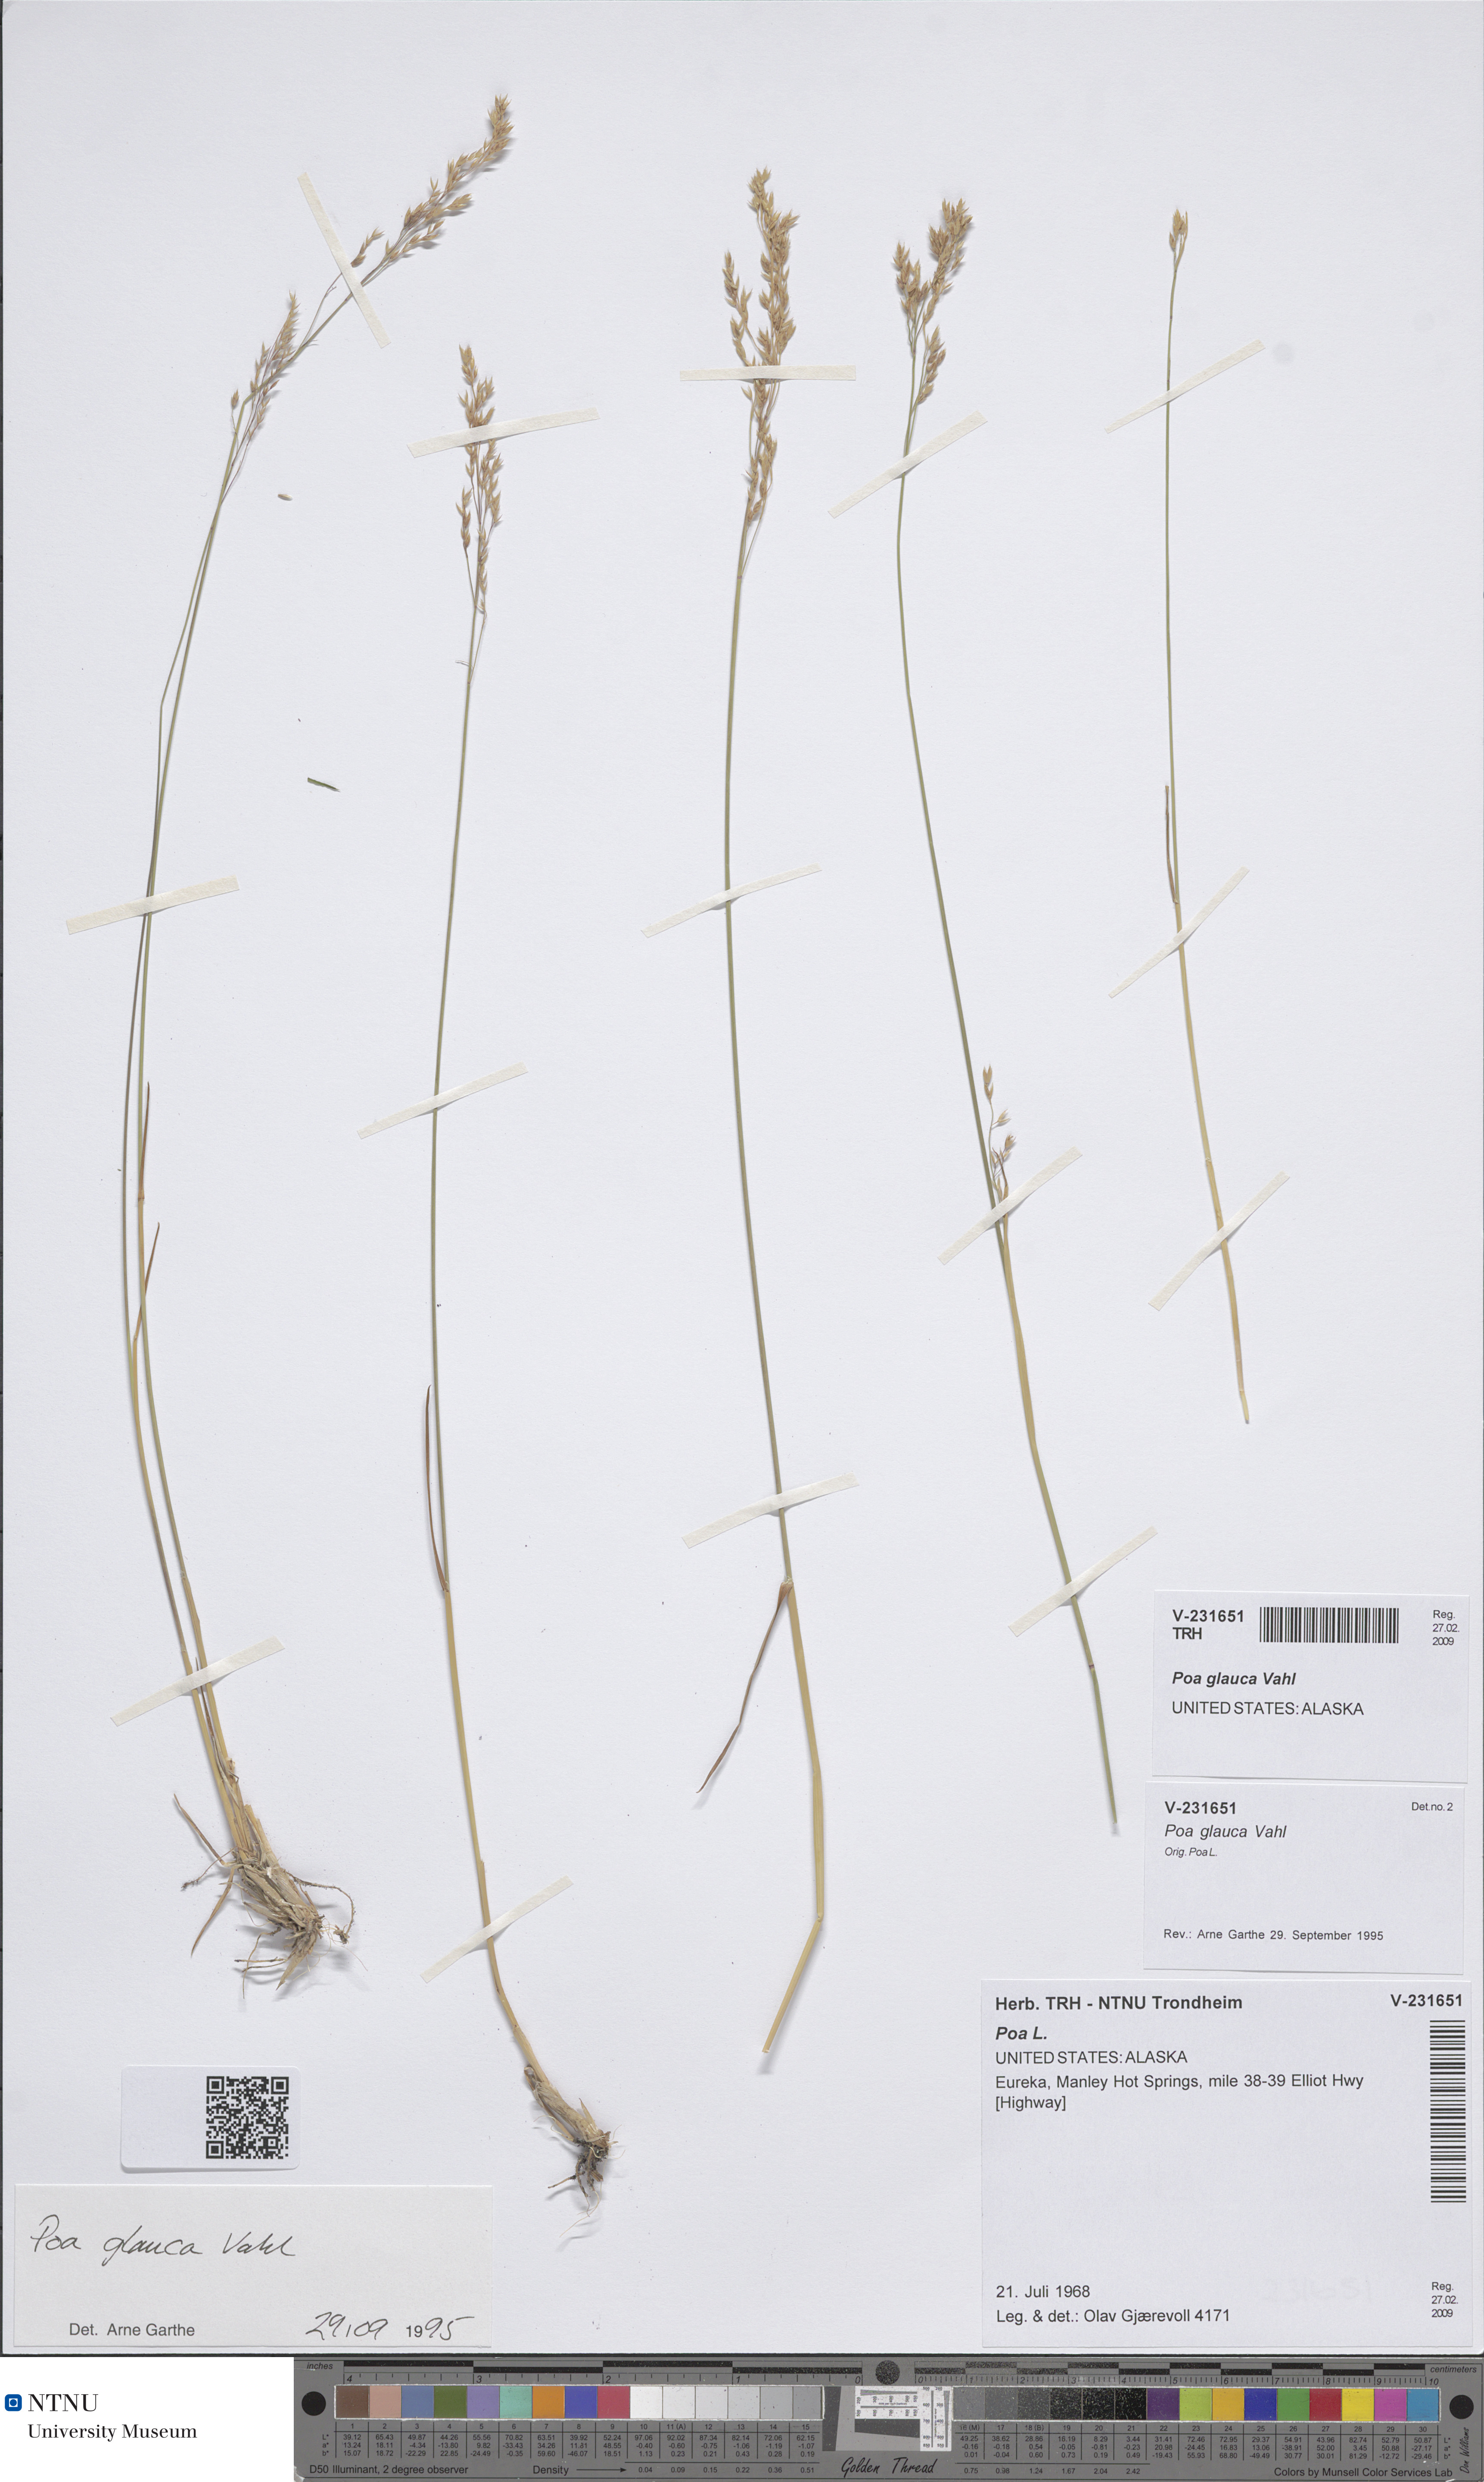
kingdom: Plantae
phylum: Tracheophyta
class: Liliopsida
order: Poales
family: Poaceae
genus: Poa
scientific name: Poa glauca
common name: Glaucous bluegrass
